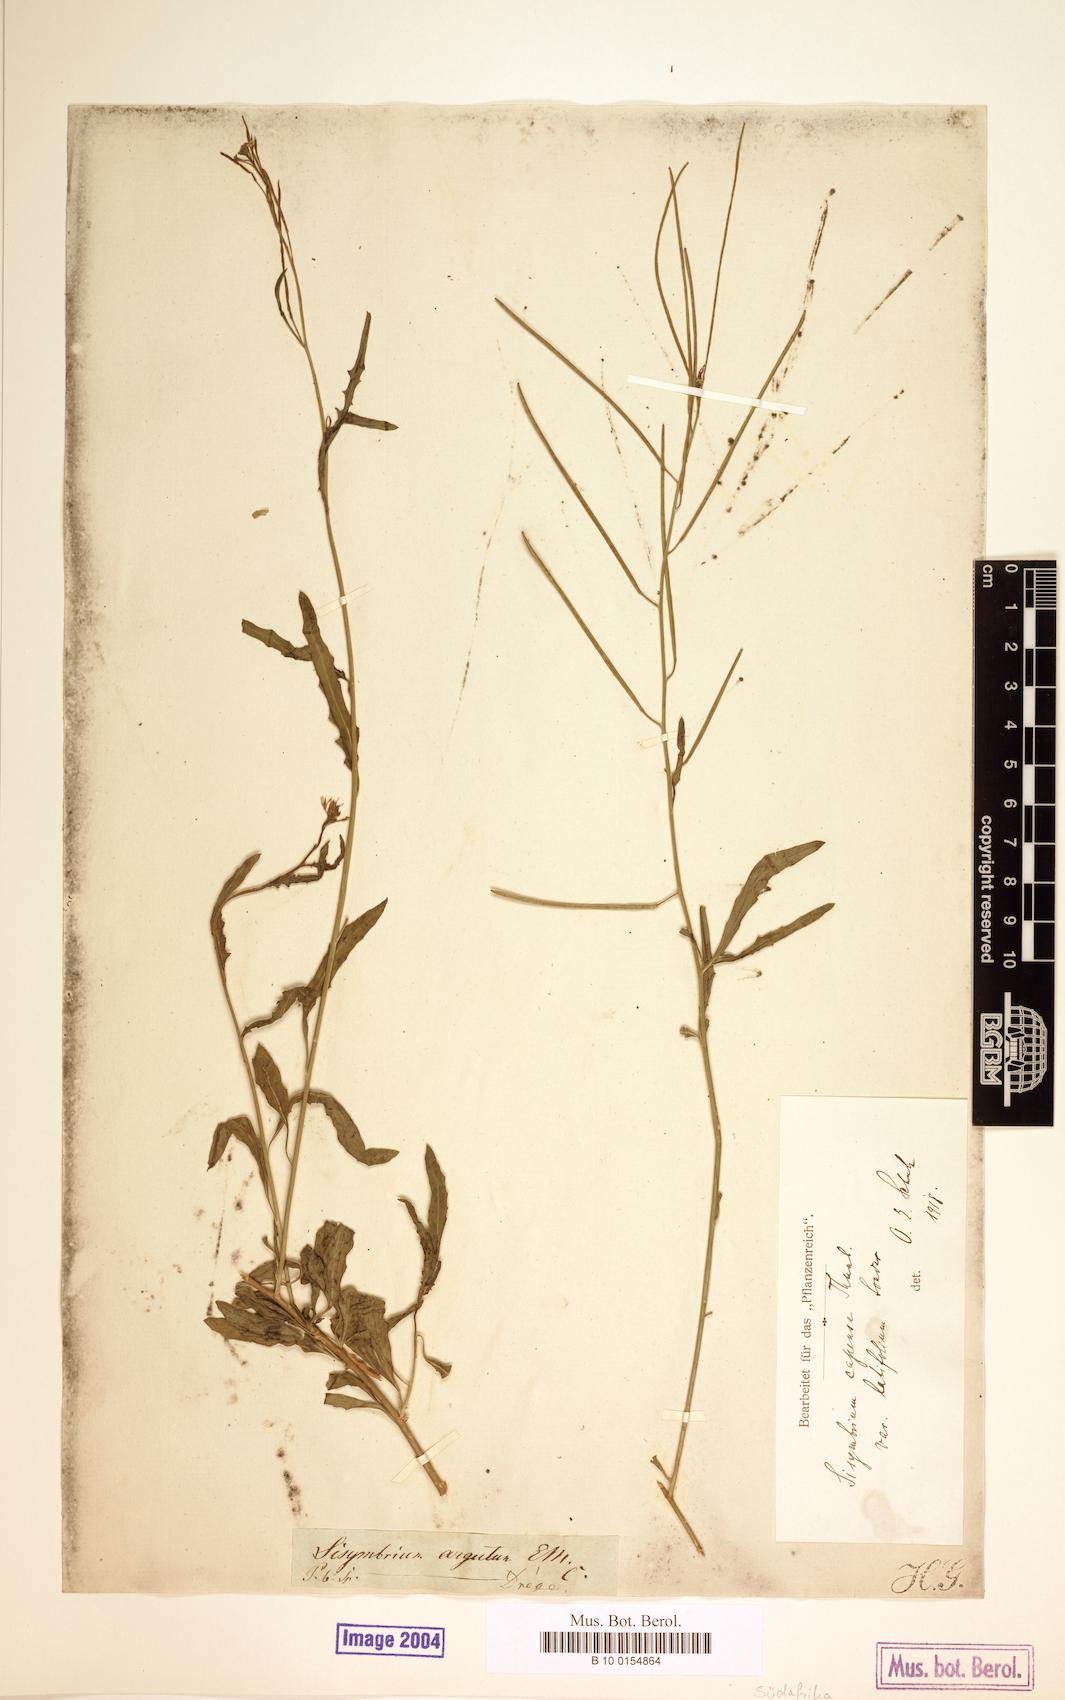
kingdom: Plantae
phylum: Tracheophyta
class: Magnoliopsida
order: Brassicales
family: Brassicaceae
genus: Sisymbrium
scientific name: Sisymbrium capense
